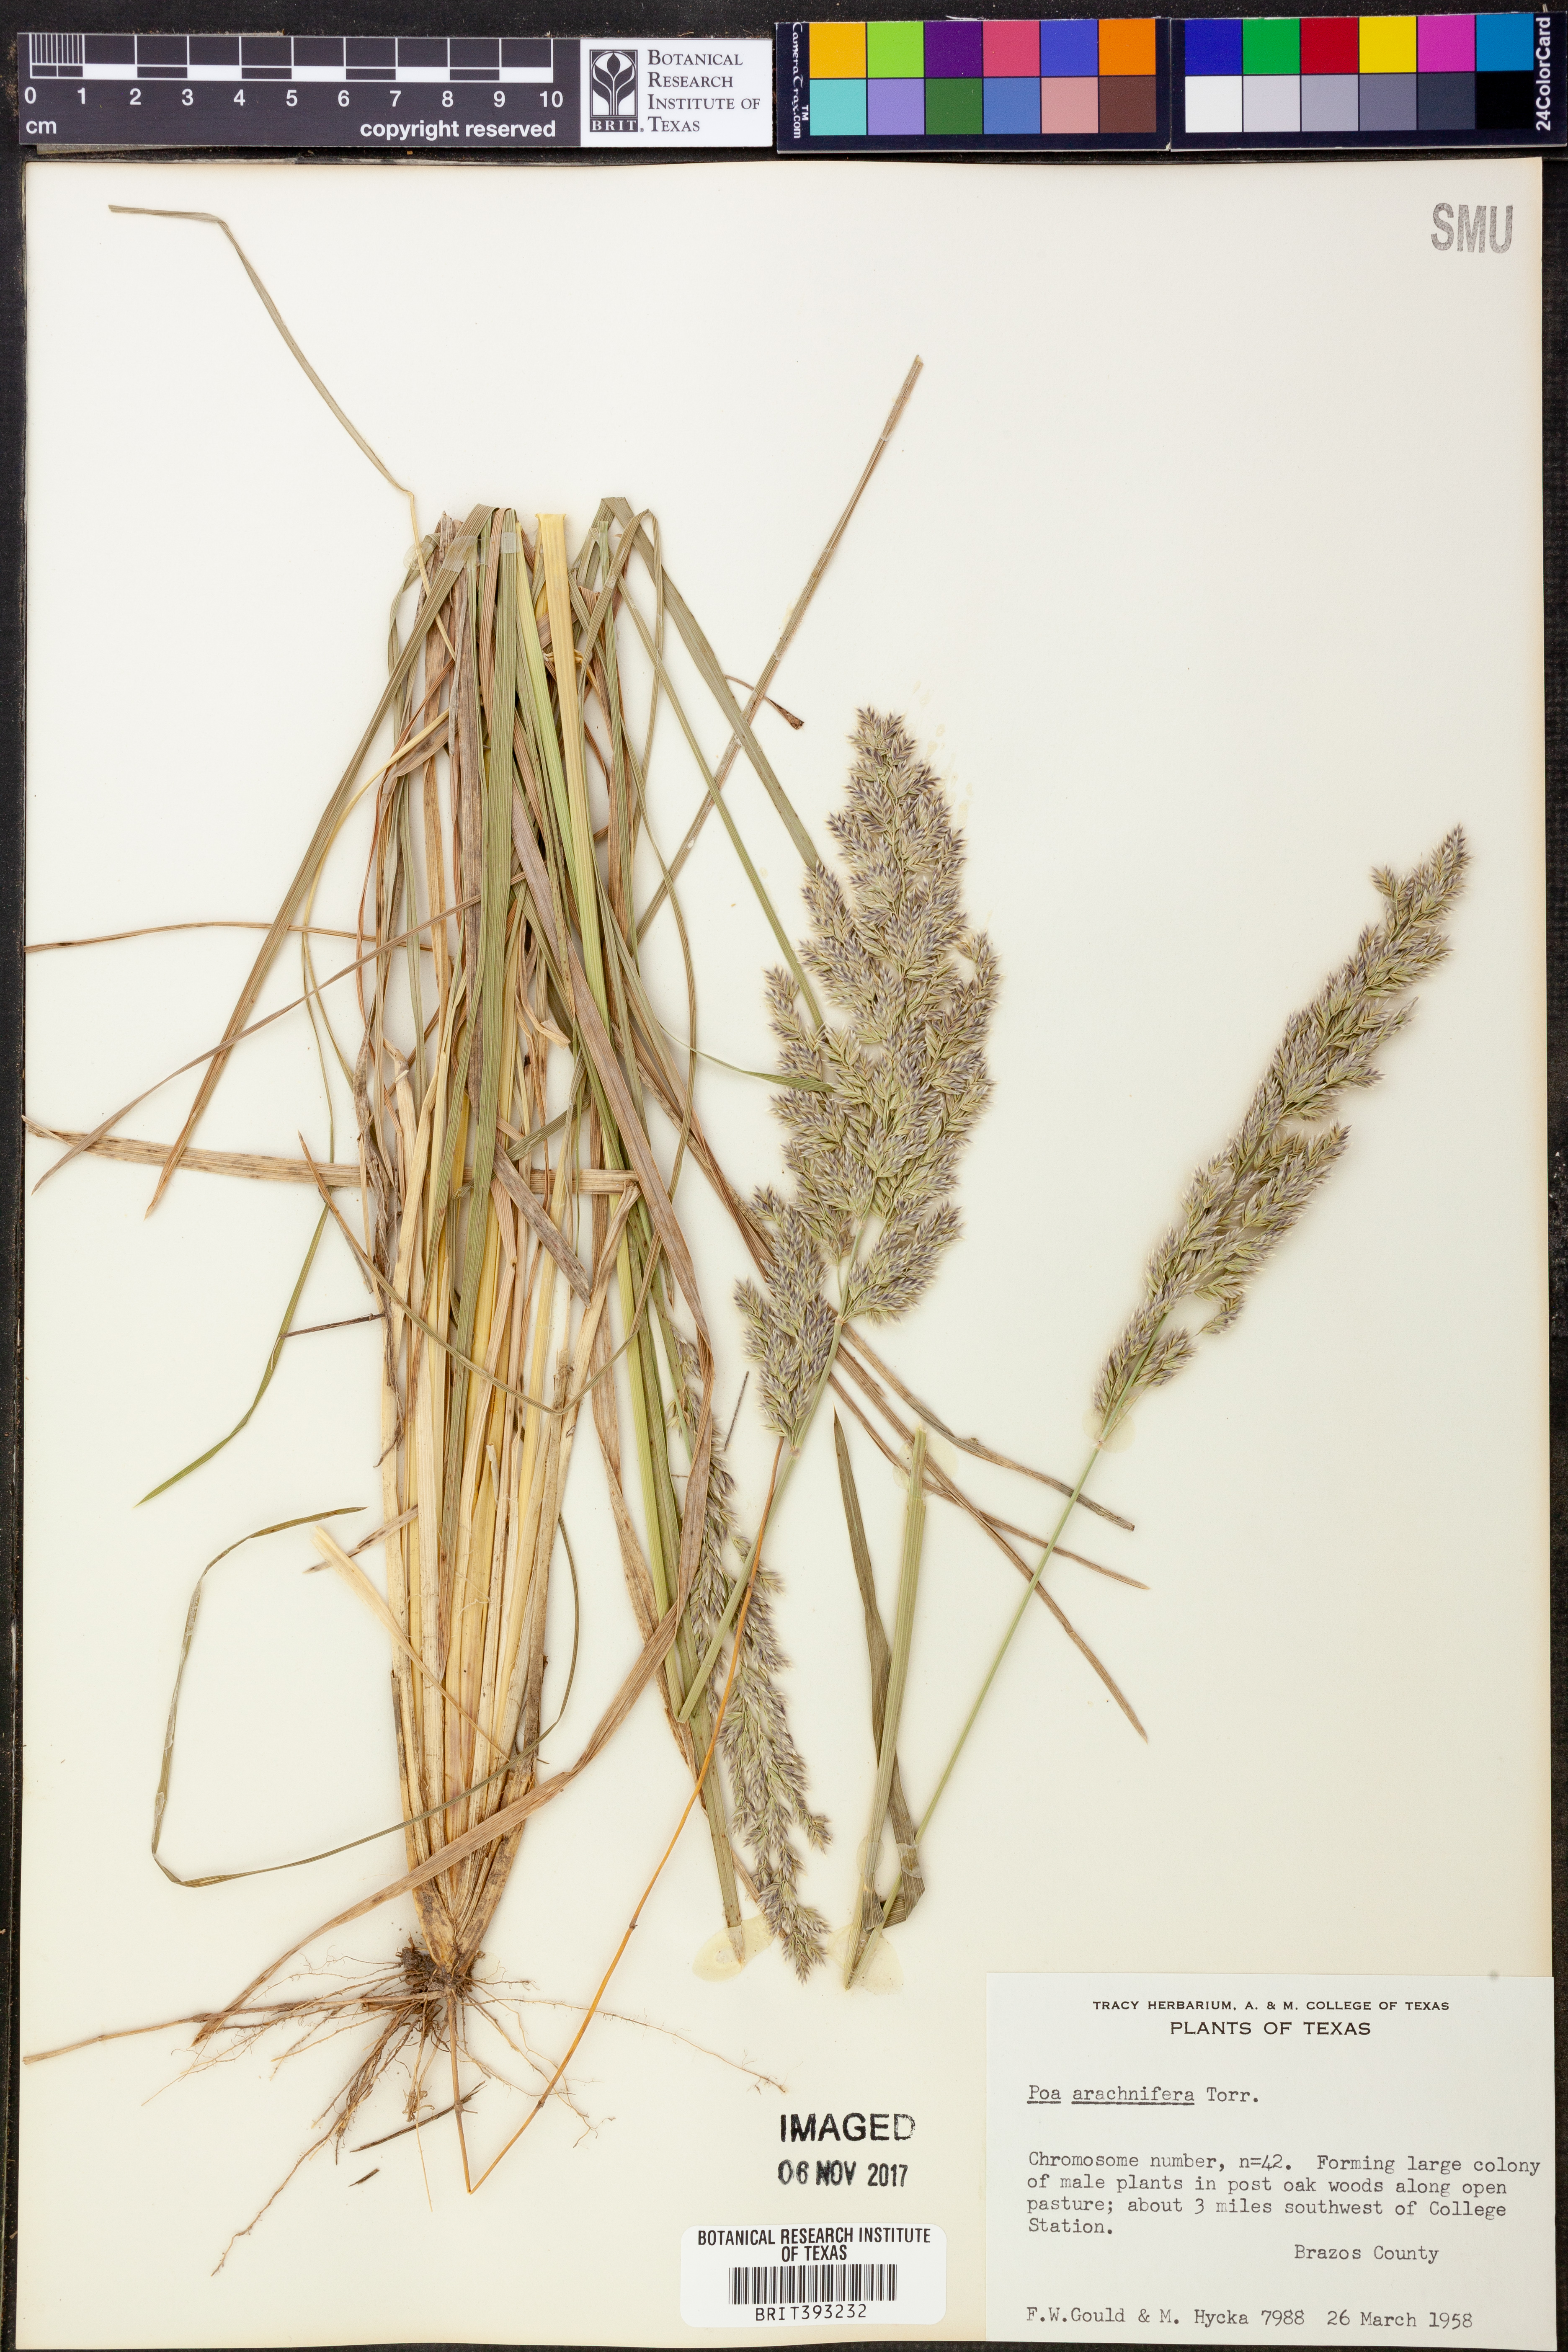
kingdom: Plantae
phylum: Tracheophyta
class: Liliopsida
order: Poales
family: Poaceae
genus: Poa
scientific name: Poa arachnifera
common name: Texas bluegrass
